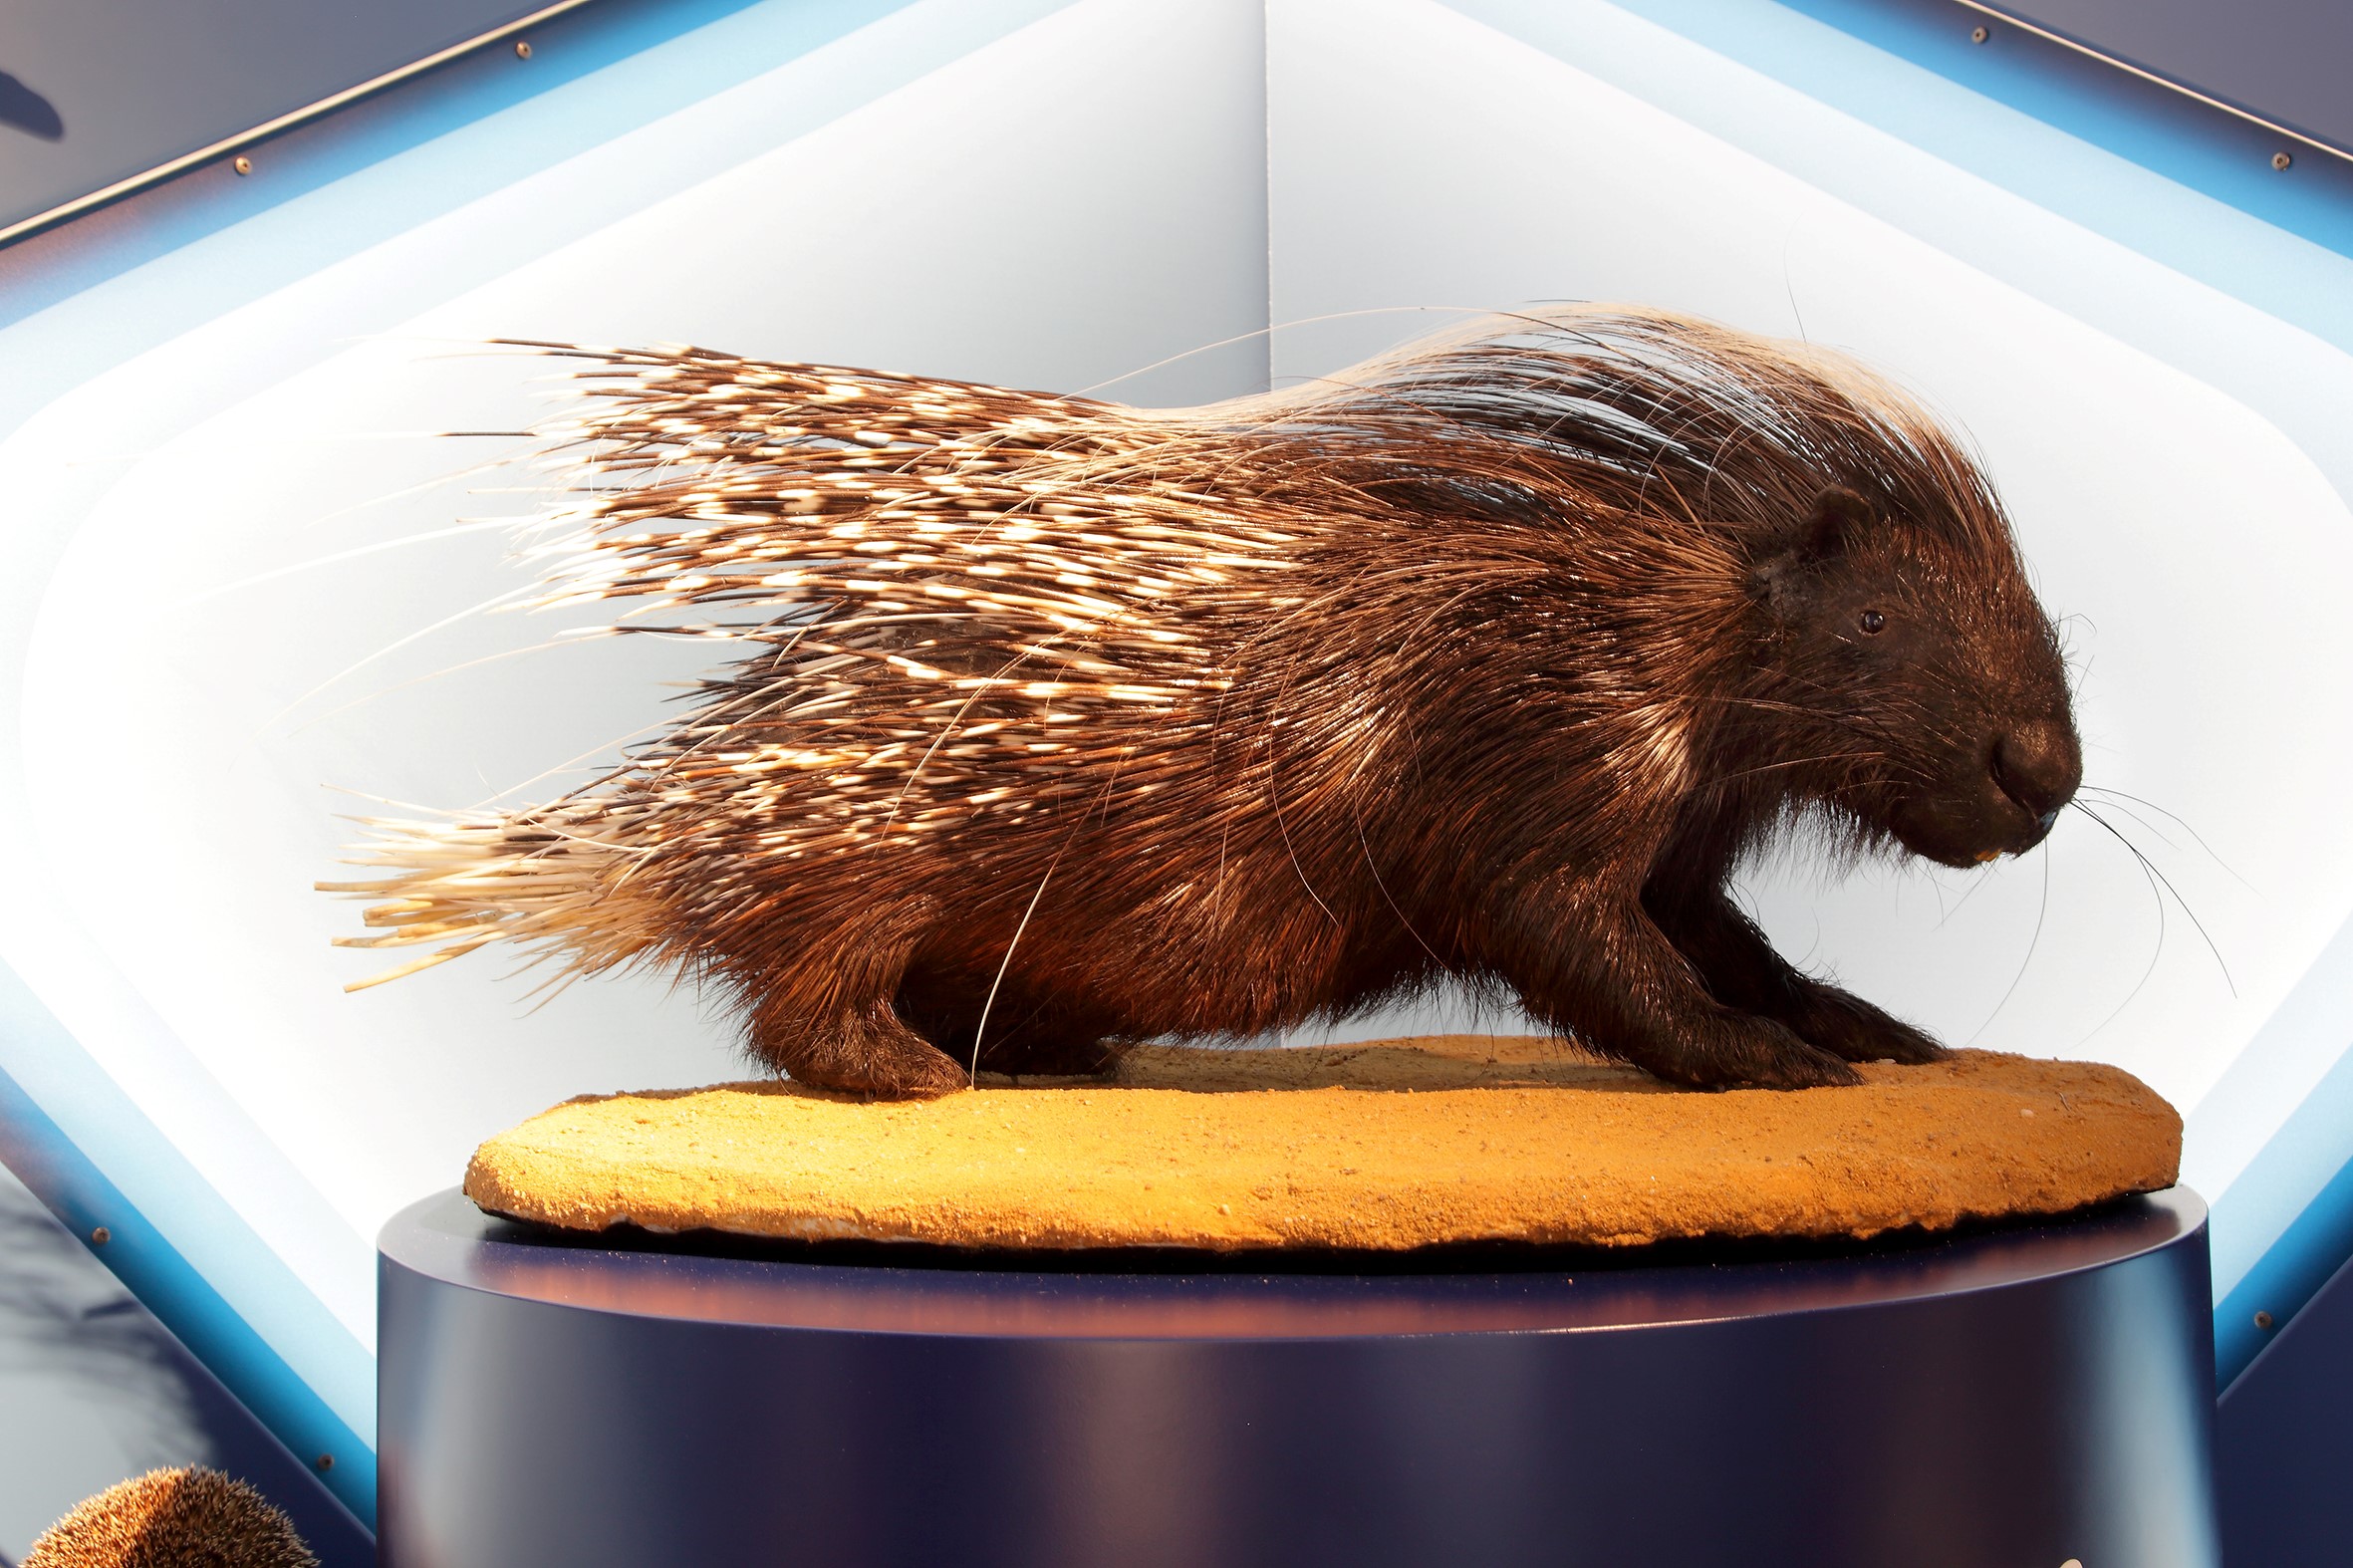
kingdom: Animalia
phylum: Chordata
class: Mammalia
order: Rodentia
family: Hystricidae
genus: Hystrix
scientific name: Hystrix cristata
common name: Crested porcupine
